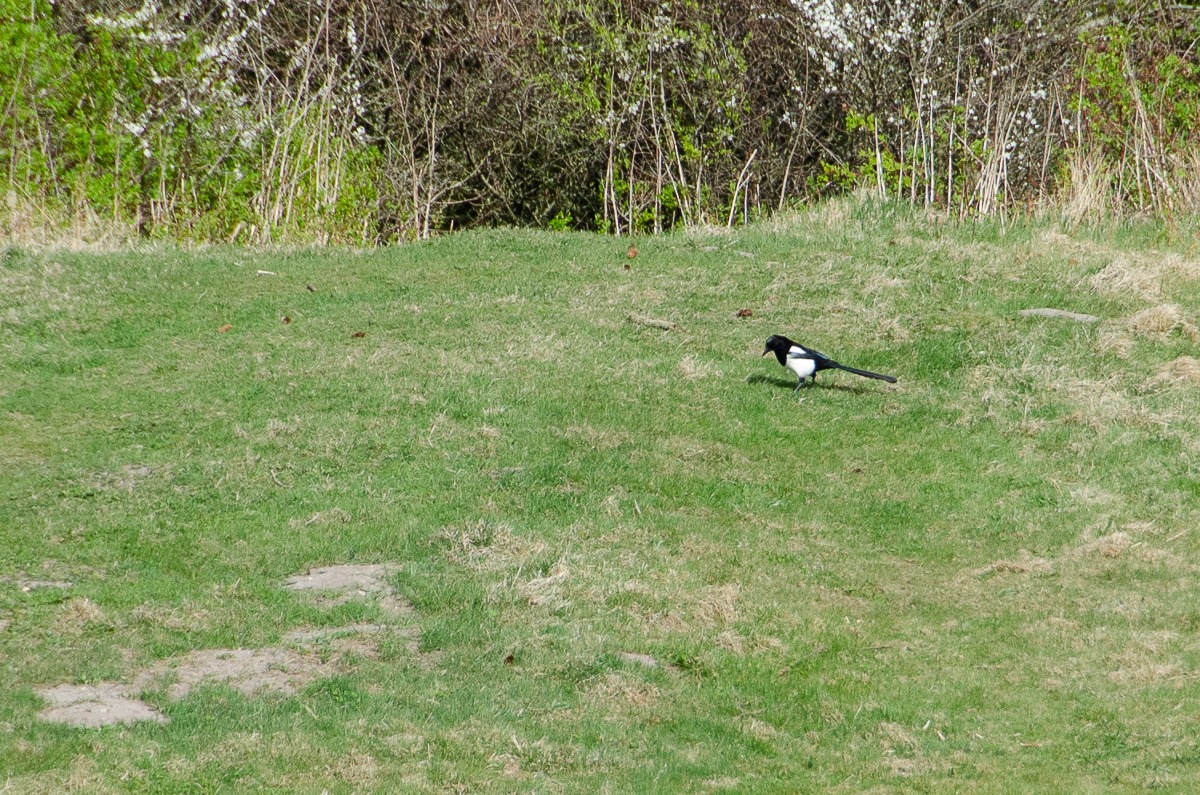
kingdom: Animalia
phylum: Chordata
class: Aves
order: Passeriformes
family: Corvidae
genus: Pica
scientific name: Pica pica
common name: Husskade
